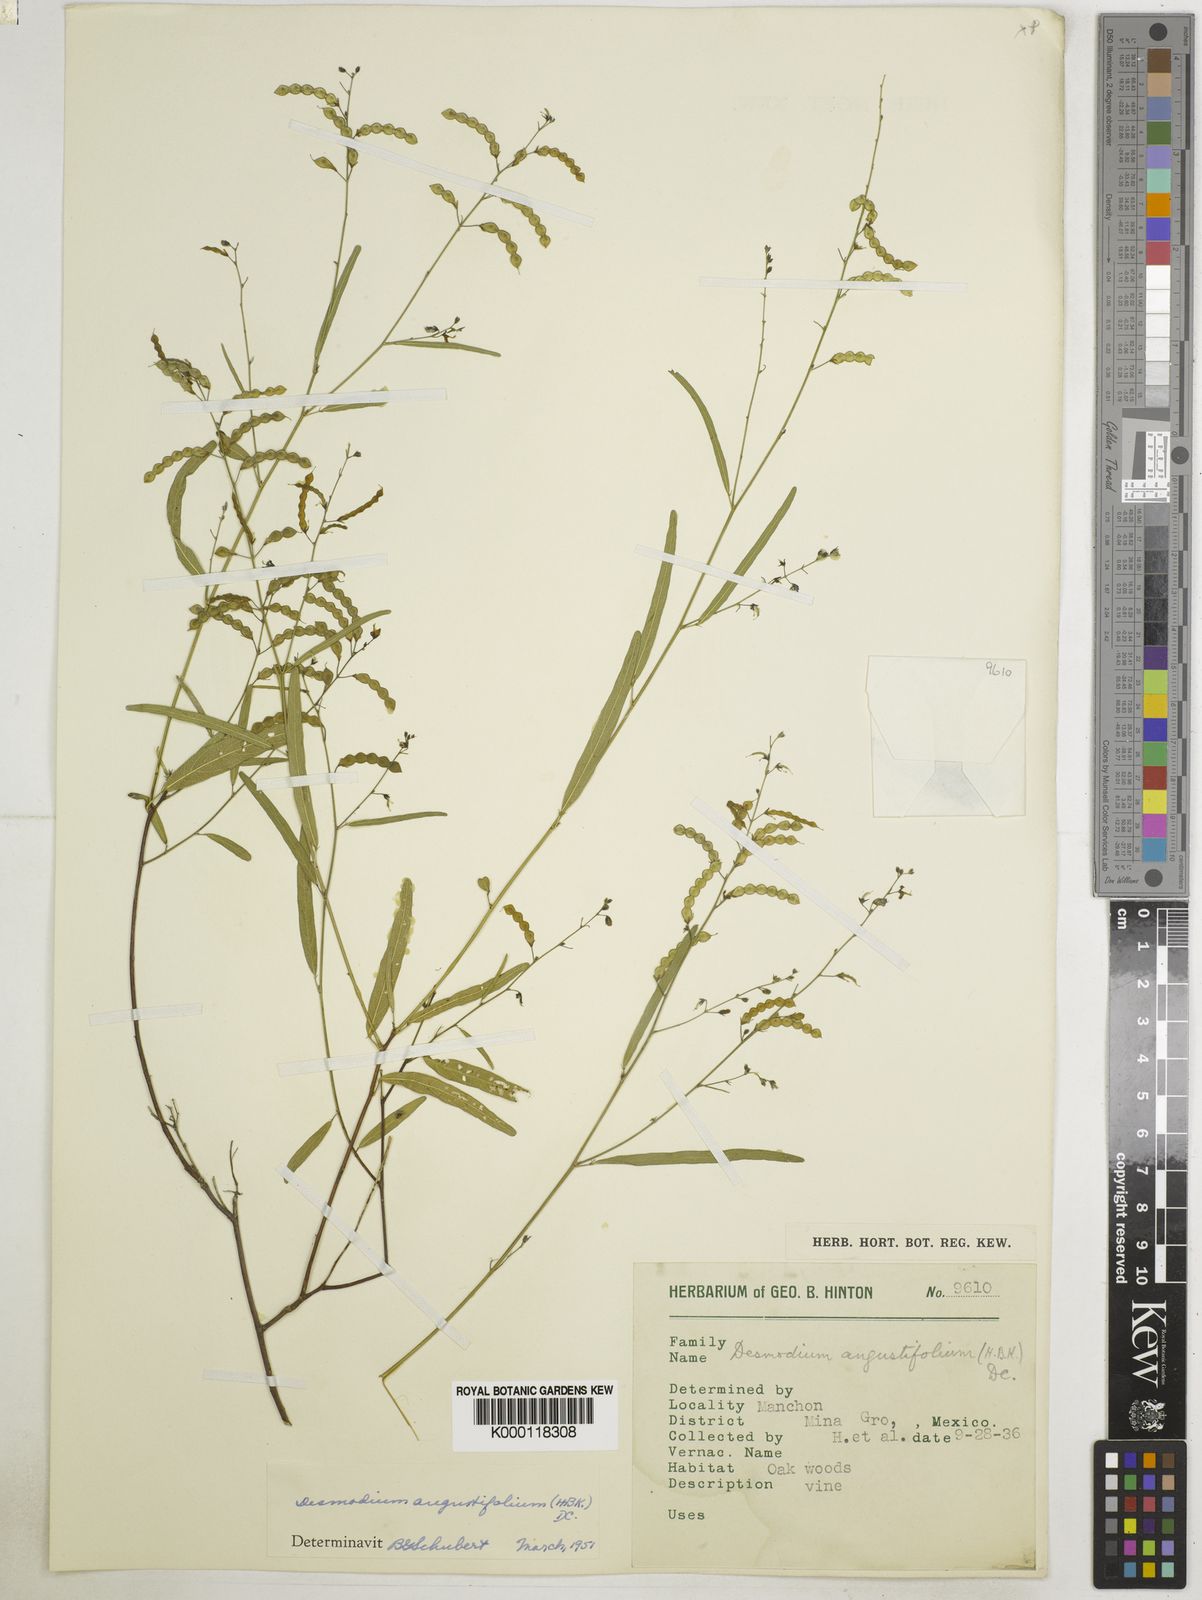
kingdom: Plantae
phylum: Tracheophyta
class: Magnoliopsida
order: Fabales
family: Fabaceae
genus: Desmodium
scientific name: Desmodium angustifolium
